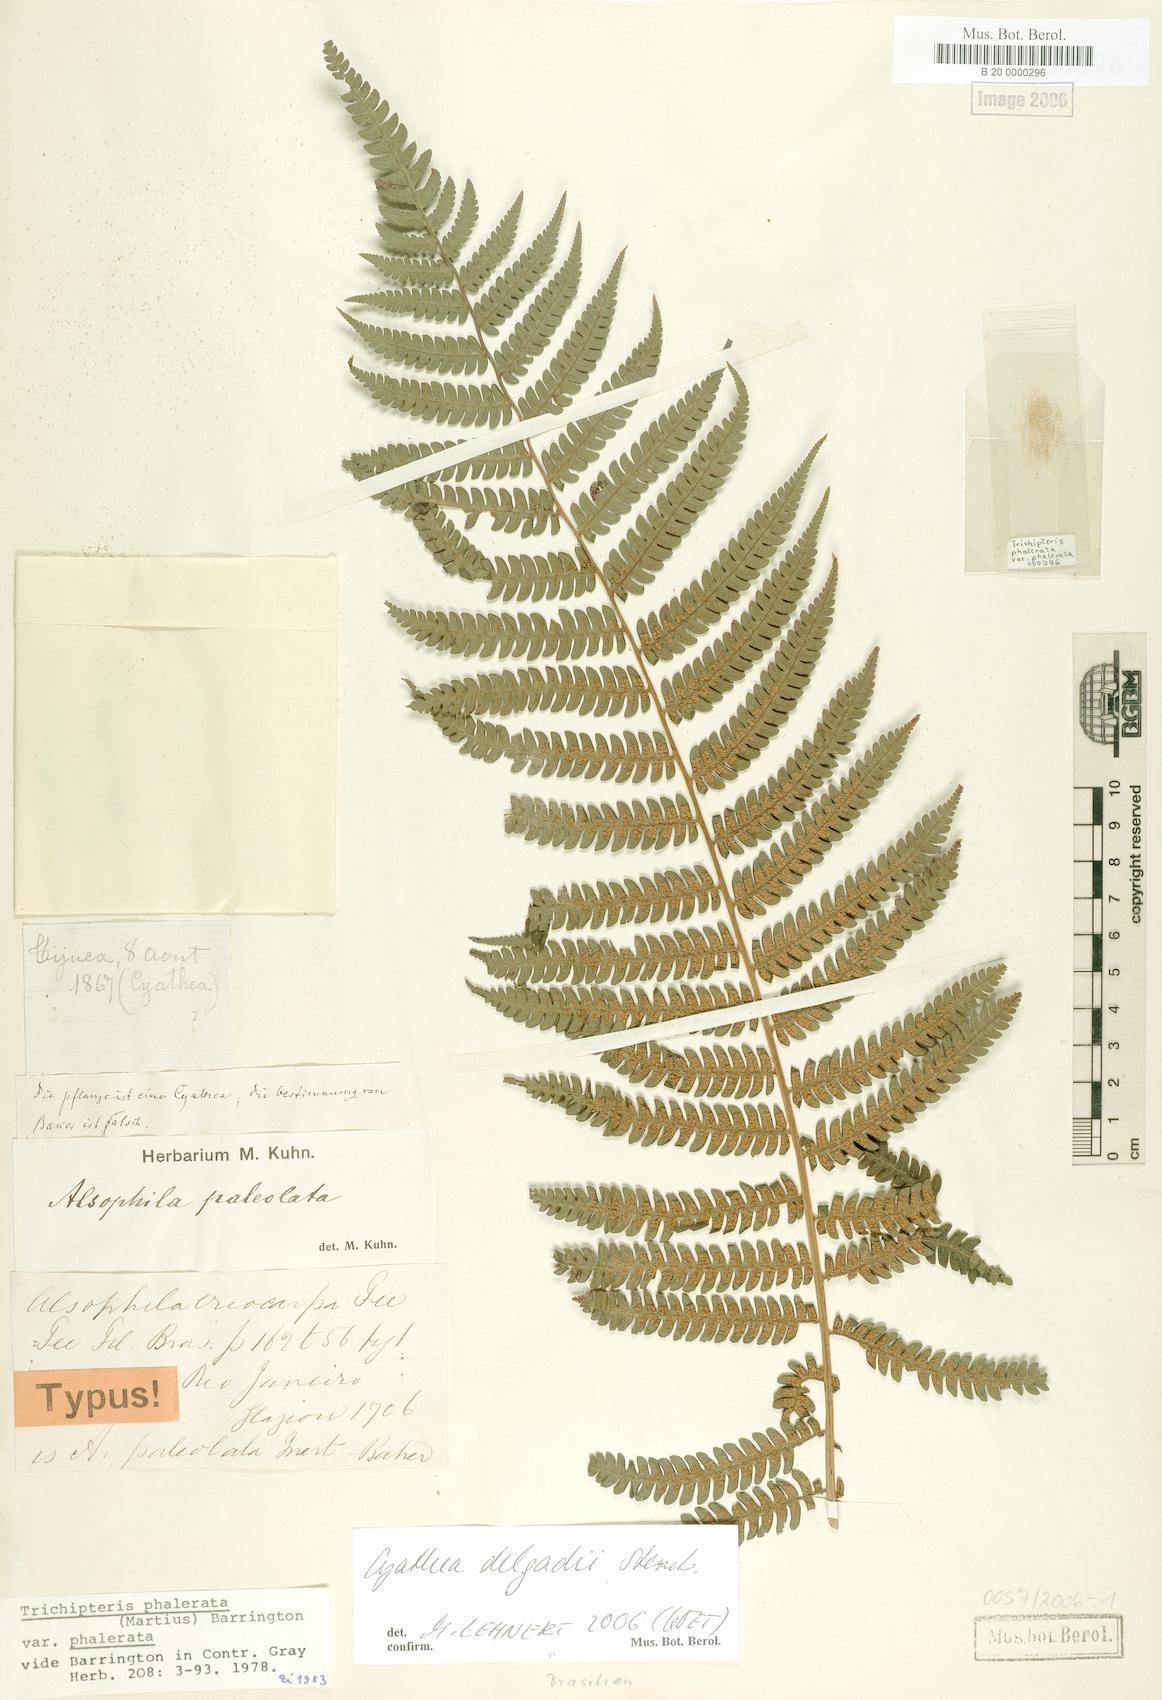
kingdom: Plantae
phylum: Tracheophyta
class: Polypodiopsida
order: Cyatheales
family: Cyatheaceae
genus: Cyathea
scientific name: Cyathea delgadii
